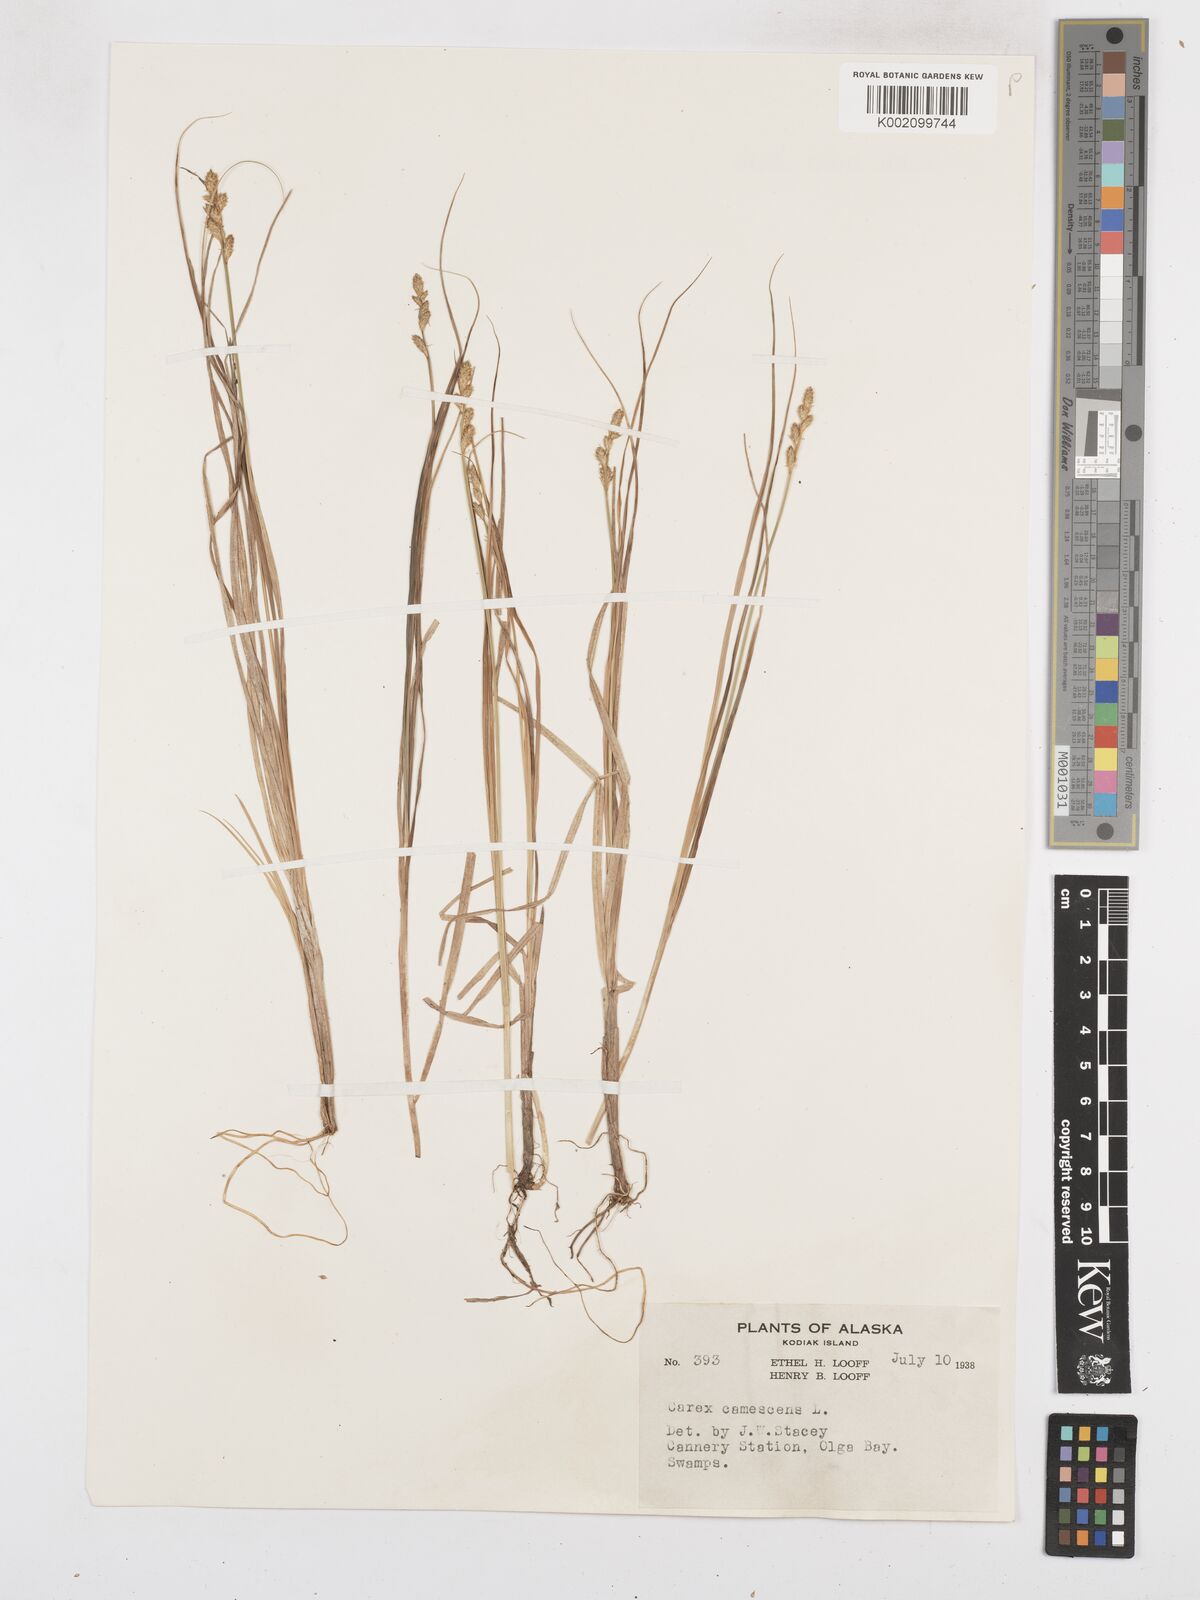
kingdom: Plantae
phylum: Tracheophyta
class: Liliopsida
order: Poales
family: Cyperaceae
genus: Carex
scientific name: Carex curta
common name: White sedge
